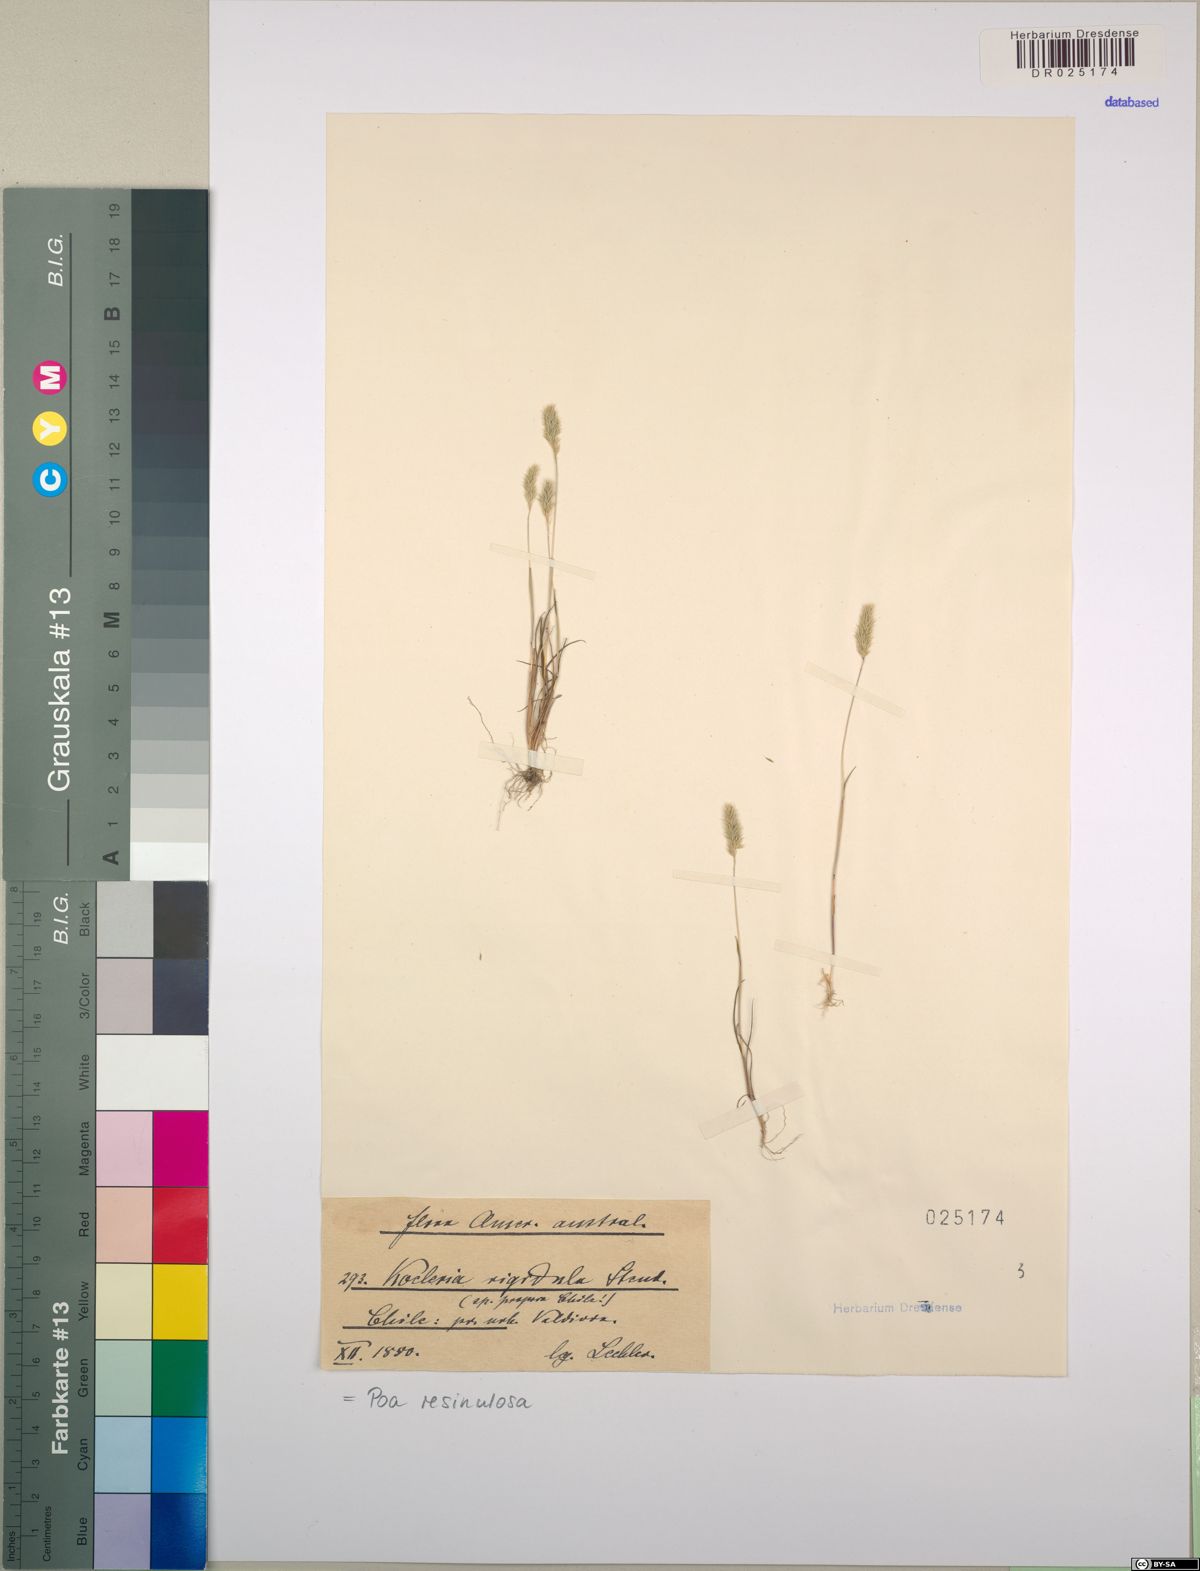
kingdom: Plantae
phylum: Tracheophyta
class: Liliopsida
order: Poales
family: Poaceae
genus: Poa
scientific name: Poa resinulosa
